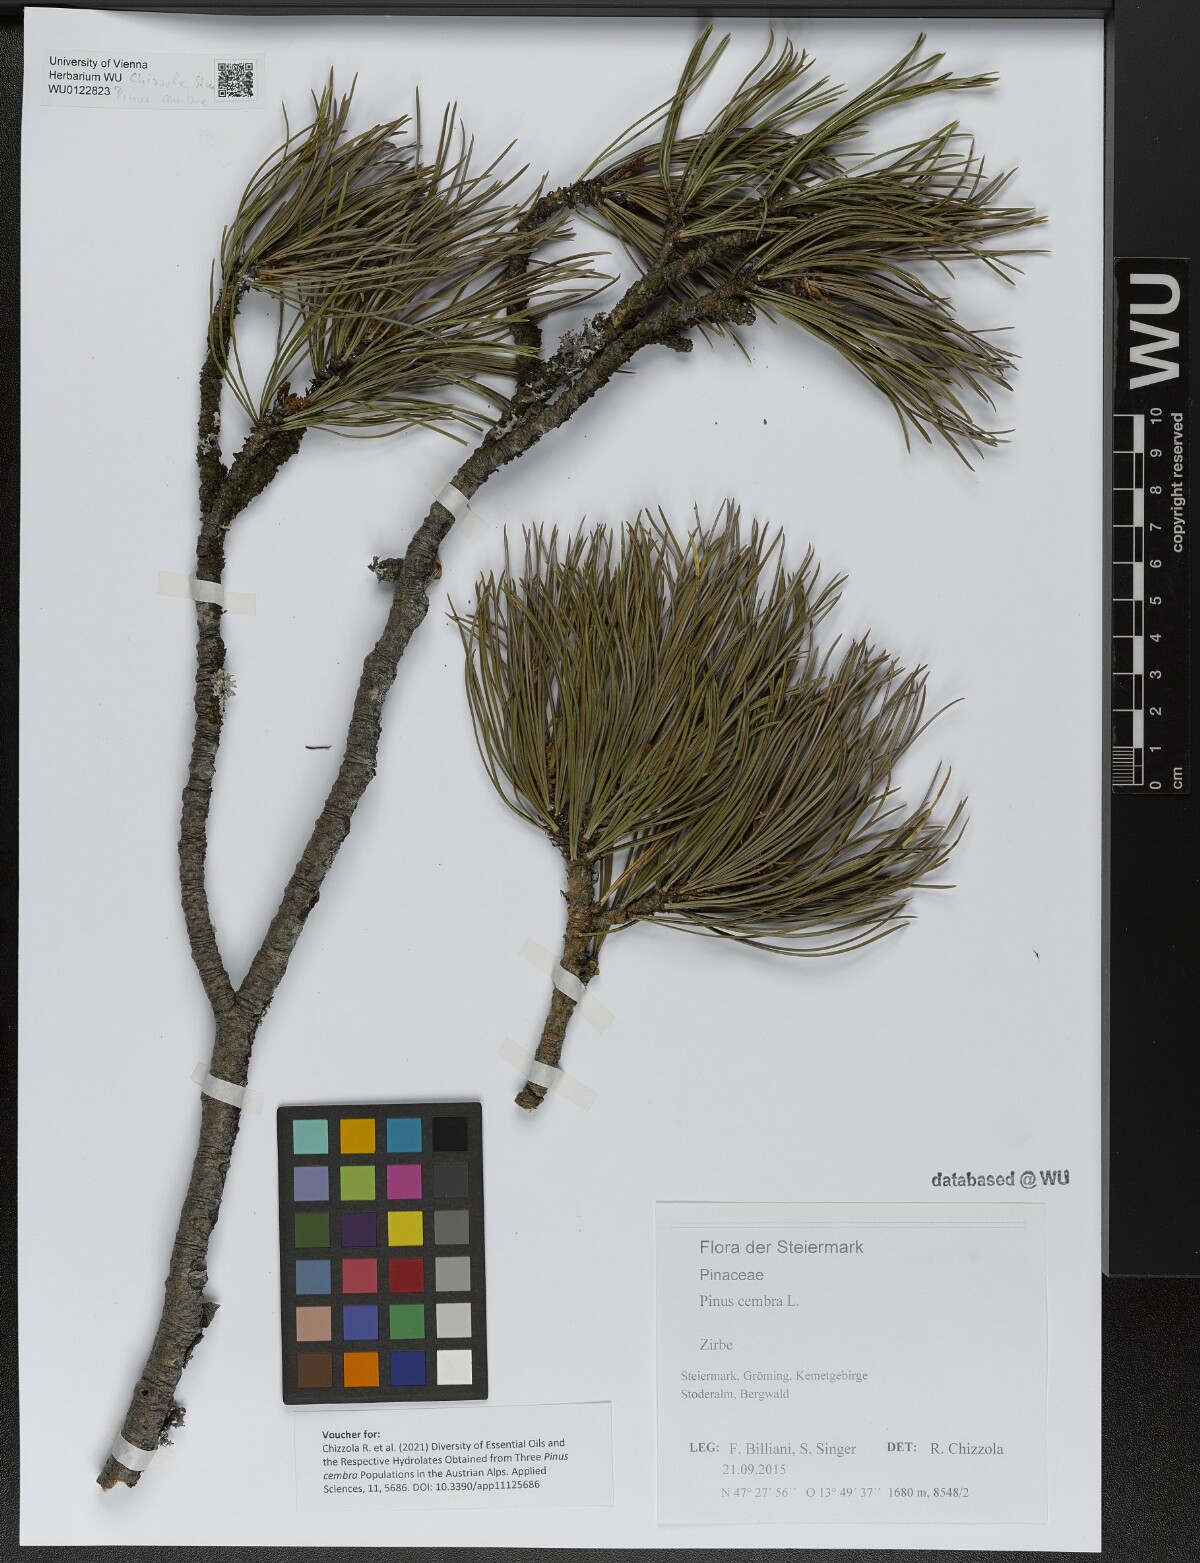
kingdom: Plantae
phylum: Tracheophyta
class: Pinopsida
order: Pinales
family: Pinaceae
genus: Pinus
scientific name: Pinus cembra
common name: Arolla pine
